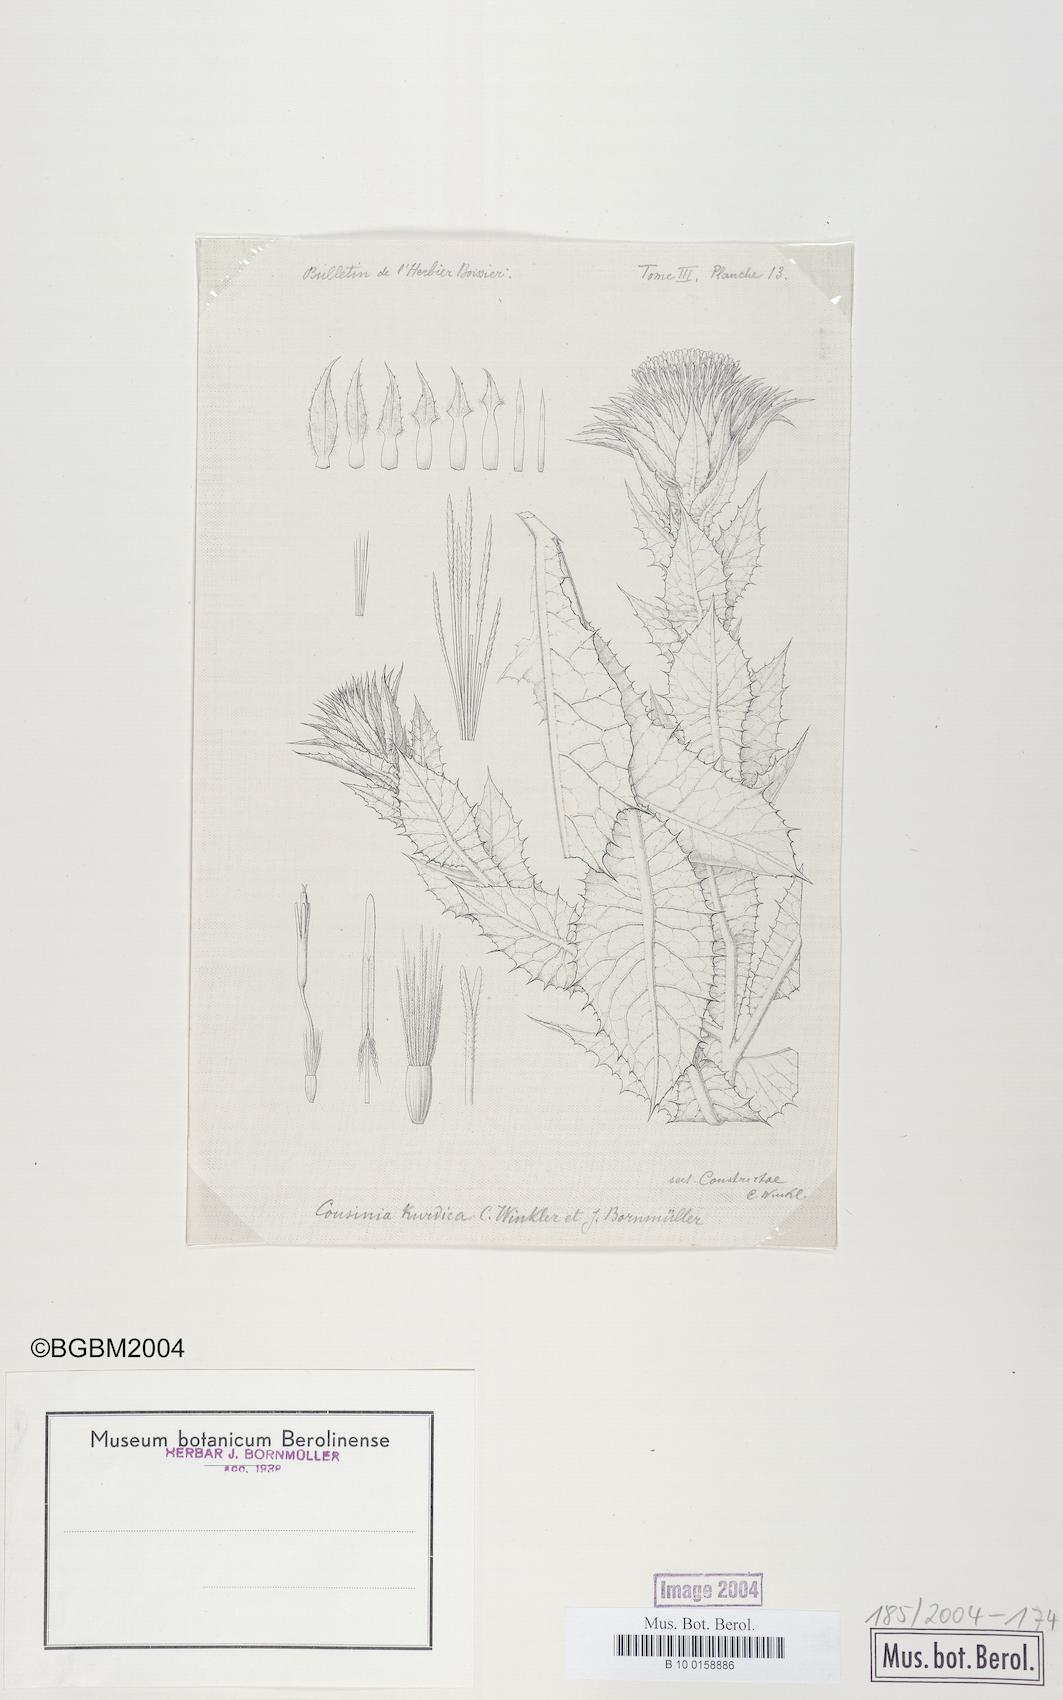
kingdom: Plantae
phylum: Tracheophyta
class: Magnoliopsida
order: Asterales
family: Asteraceae
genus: Cousinia
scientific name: Cousinia odontolepis
